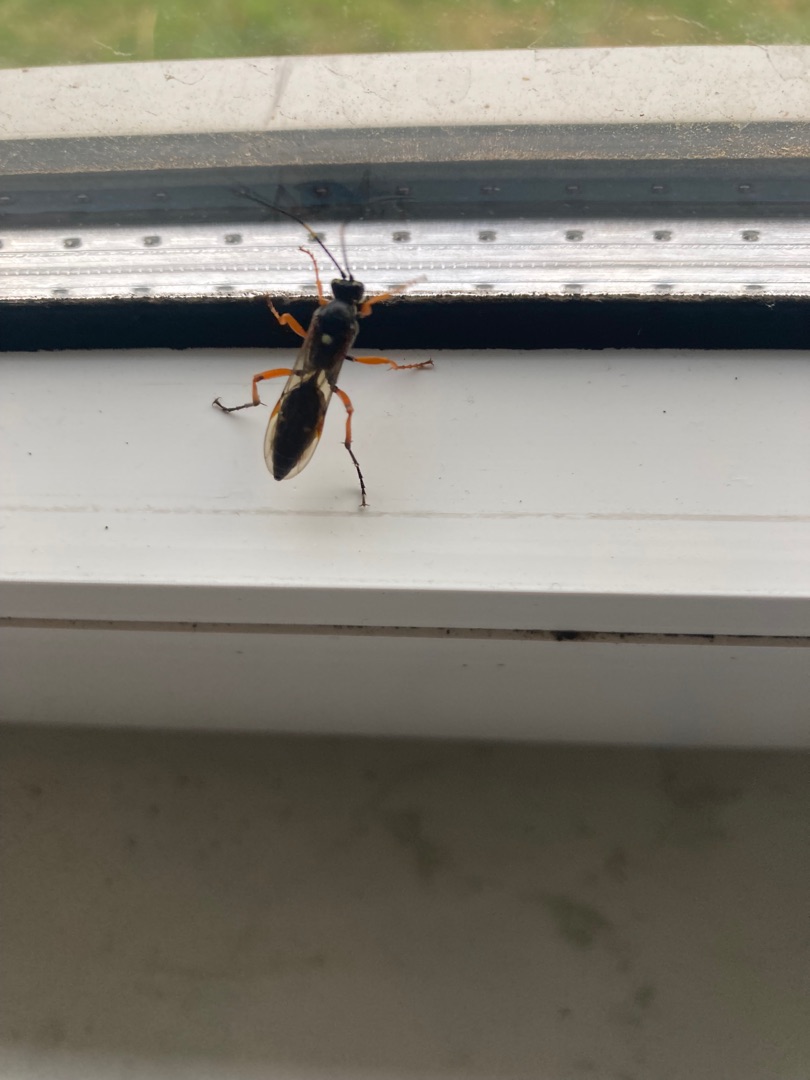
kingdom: Animalia
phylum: Arthropoda
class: Insecta
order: Hymenoptera
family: Ichneumonidae
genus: Diphyus
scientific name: Diphyus quadripunctorius
